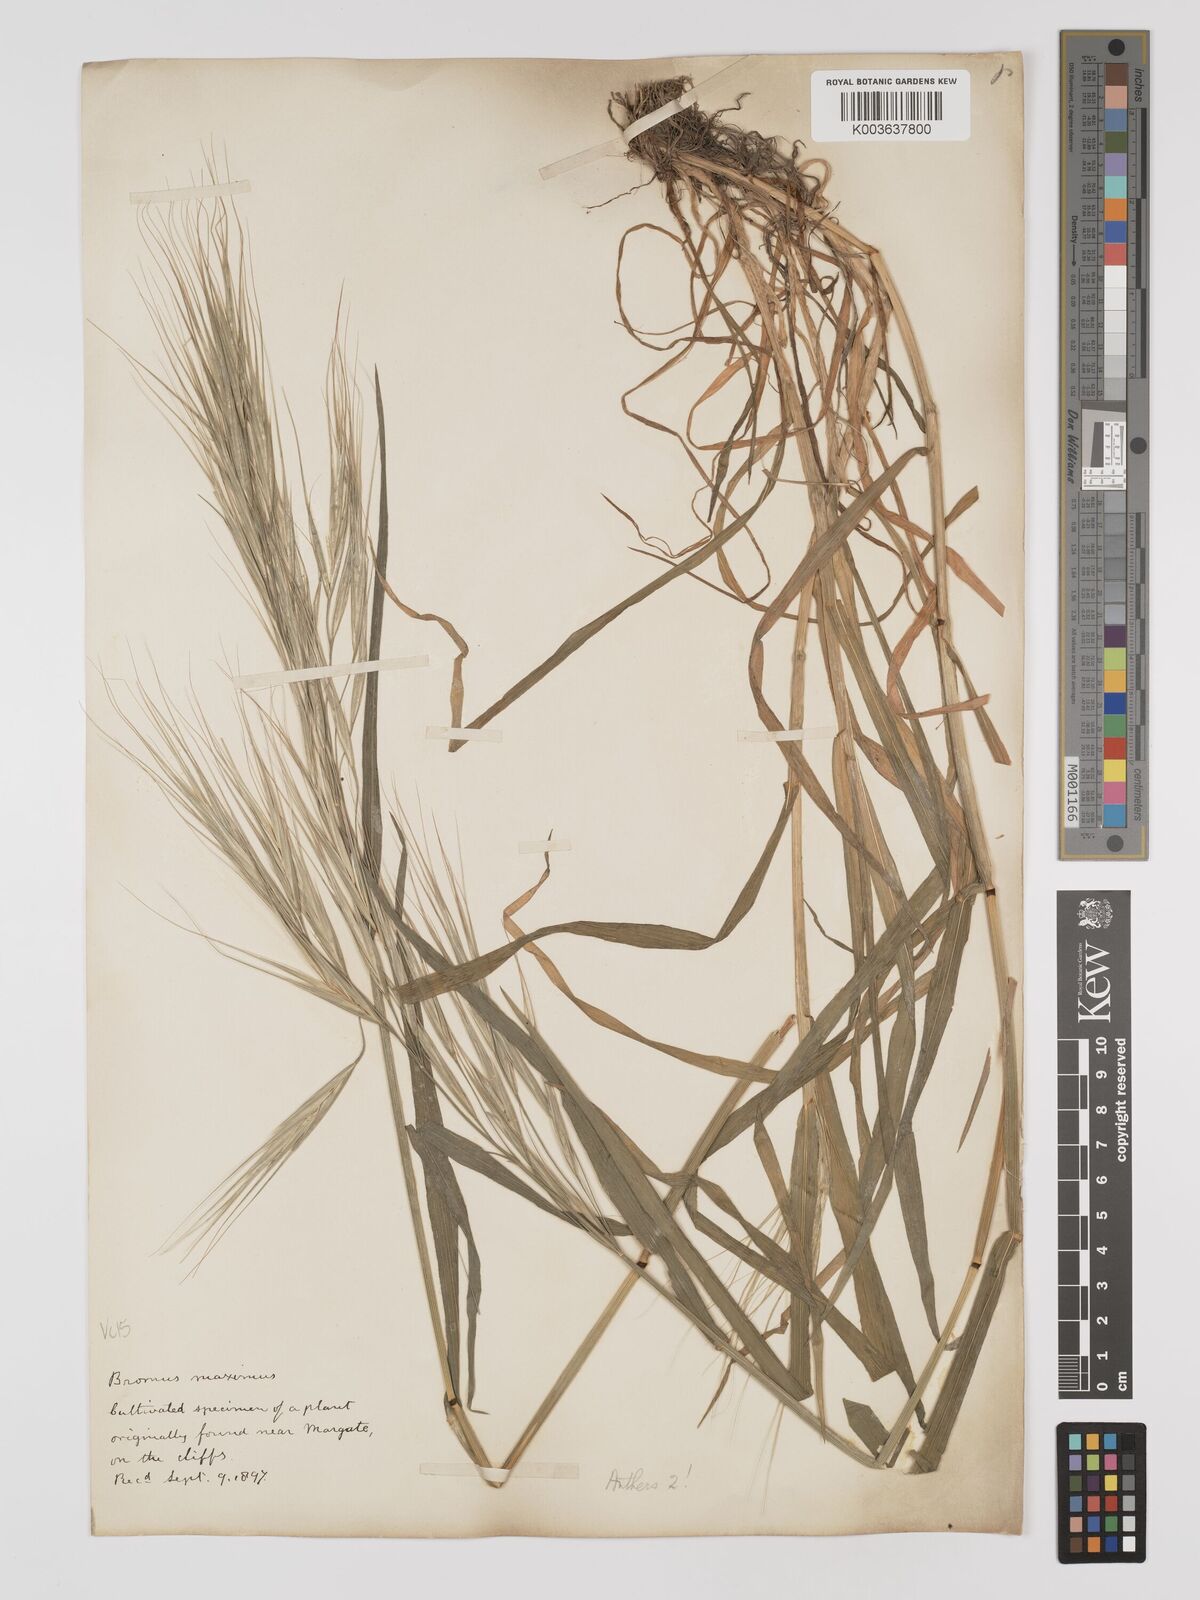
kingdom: Plantae
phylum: Tracheophyta
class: Liliopsida
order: Poales
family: Poaceae
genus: Bromus
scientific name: Bromus
